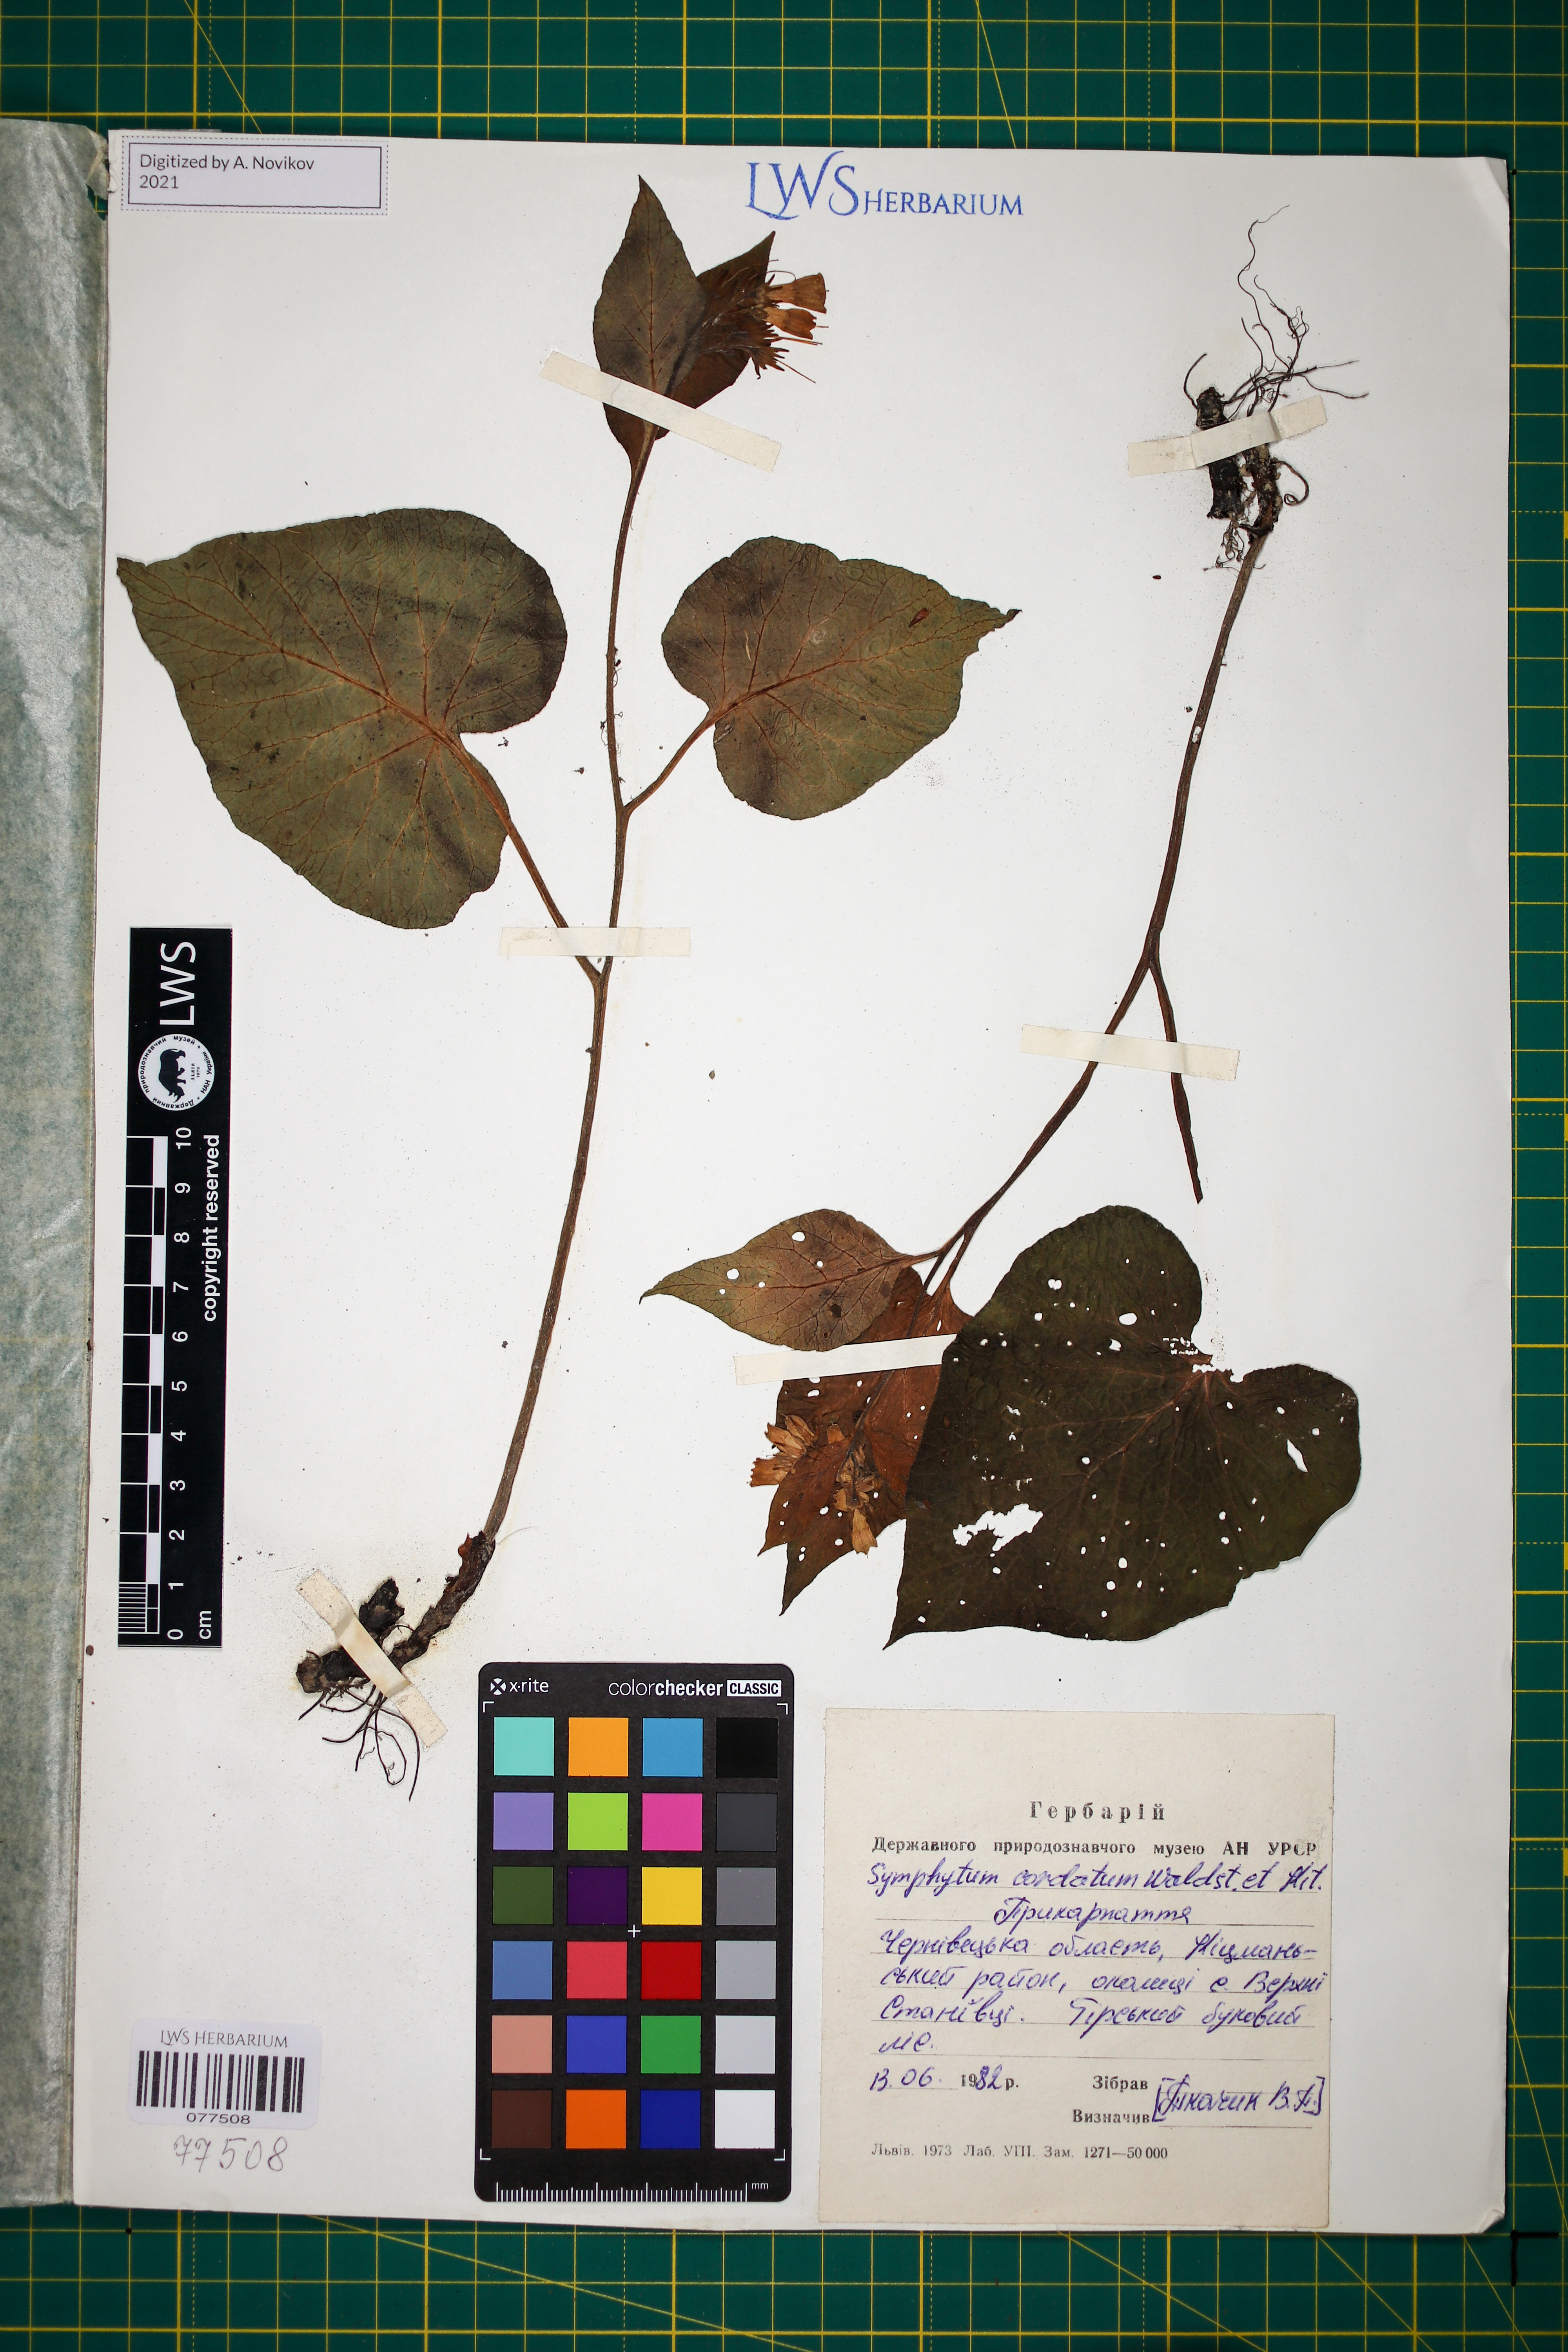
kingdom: Plantae
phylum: Tracheophyta
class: Magnoliopsida
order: Boraginales
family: Boraginaceae
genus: Symphytum
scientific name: Symphytum cordatum
